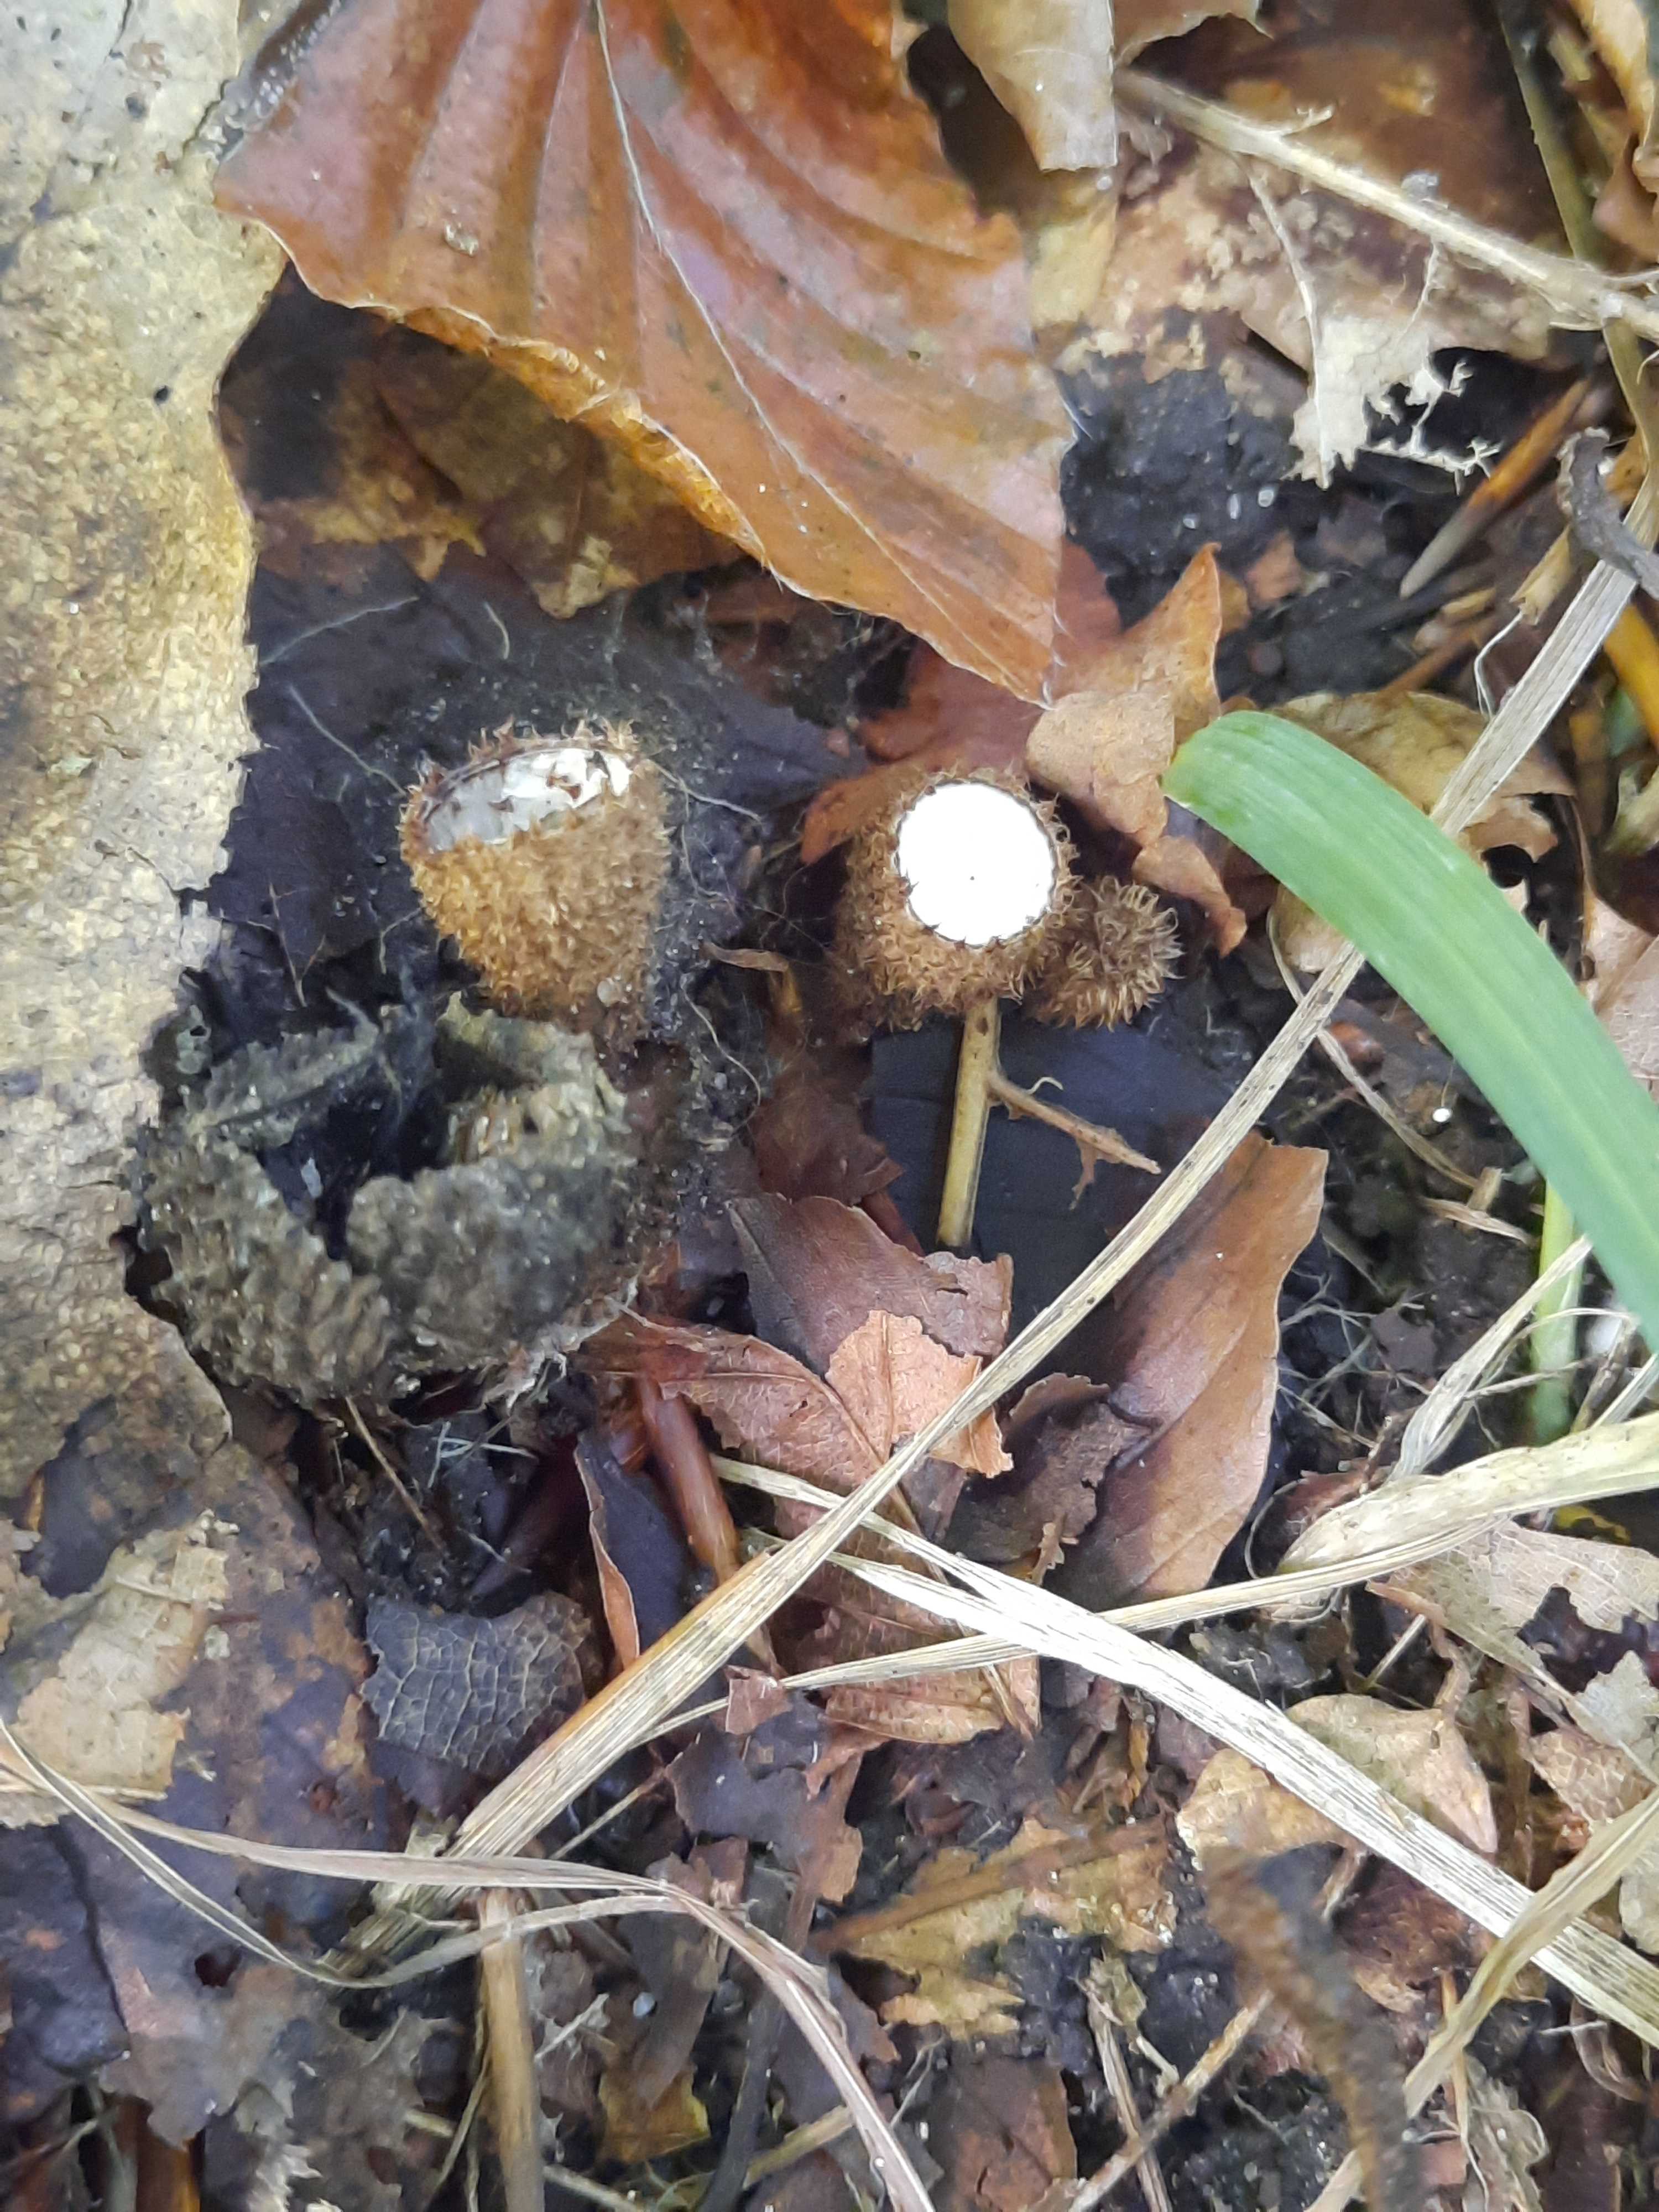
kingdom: Fungi
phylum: Basidiomycota
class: Agaricomycetes
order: Agaricales
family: Agaricaceae
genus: Cyathus
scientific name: Cyathus striatus
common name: stribet redesvamp
